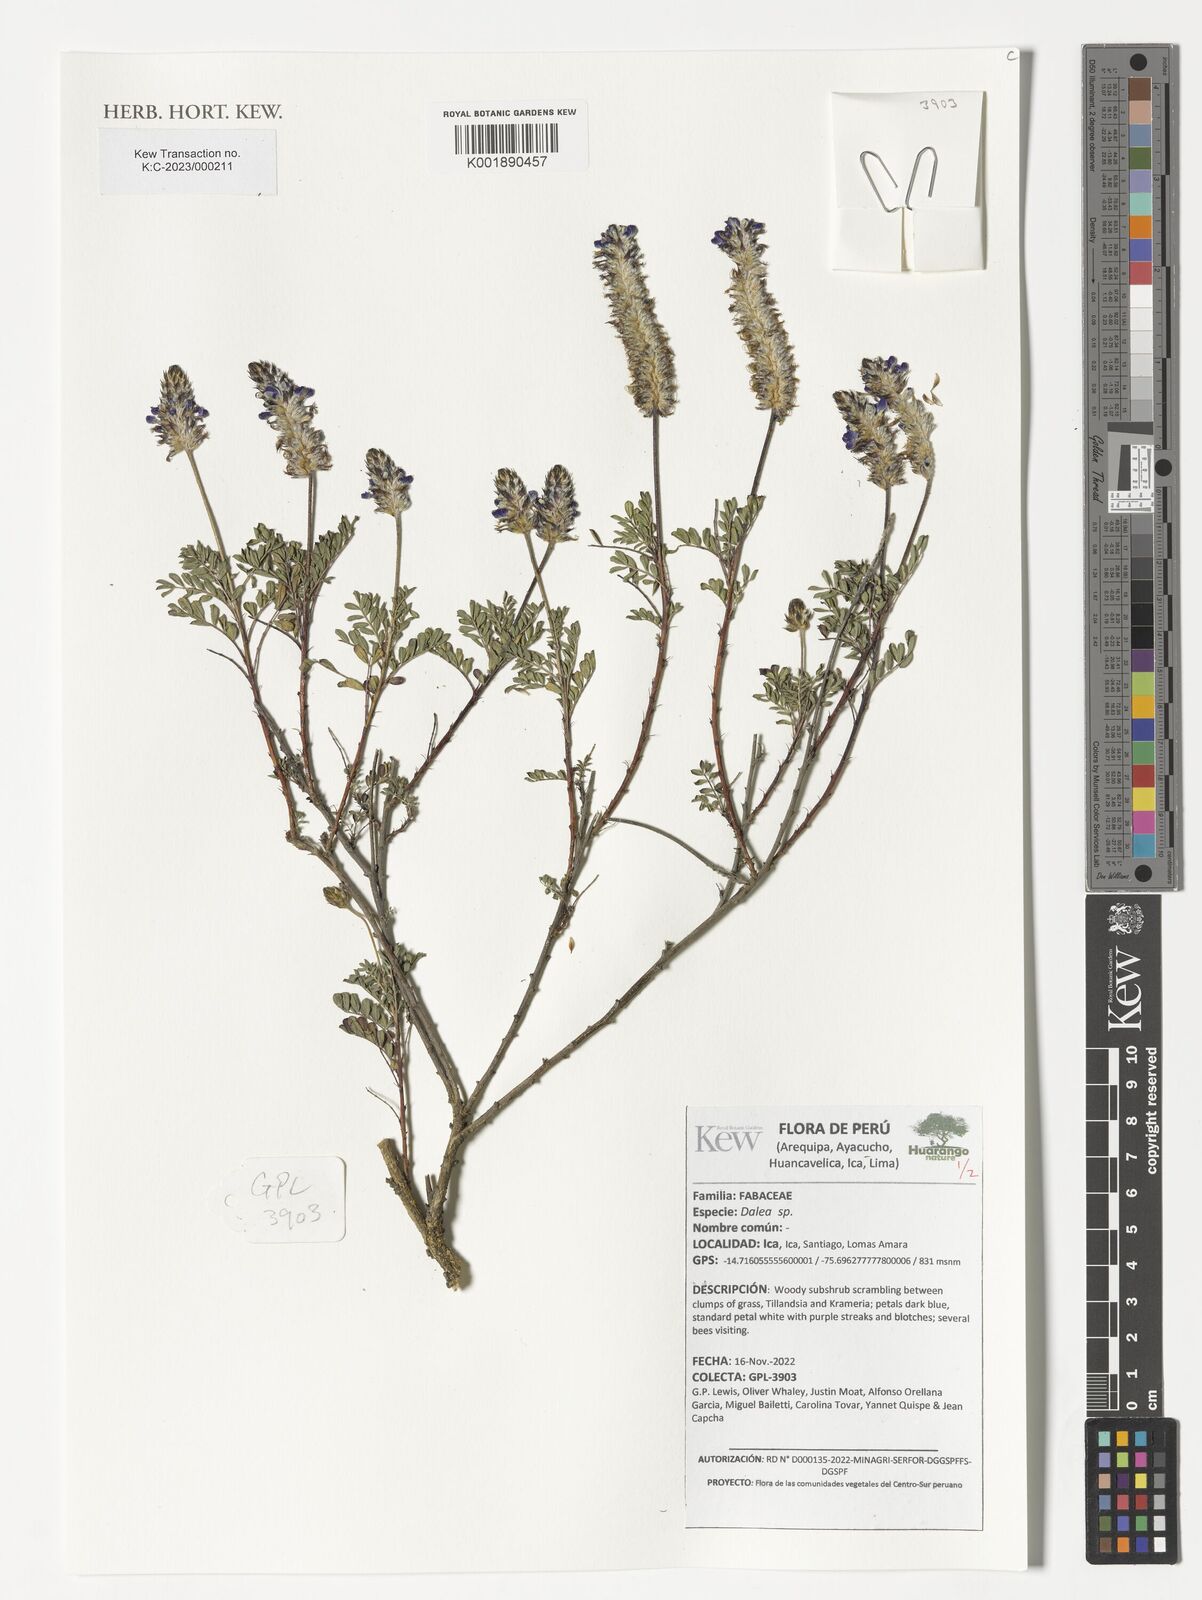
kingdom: Plantae
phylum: Tracheophyta
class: Magnoliopsida
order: Fabales
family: Fabaceae
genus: Dalea
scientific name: Dalea
